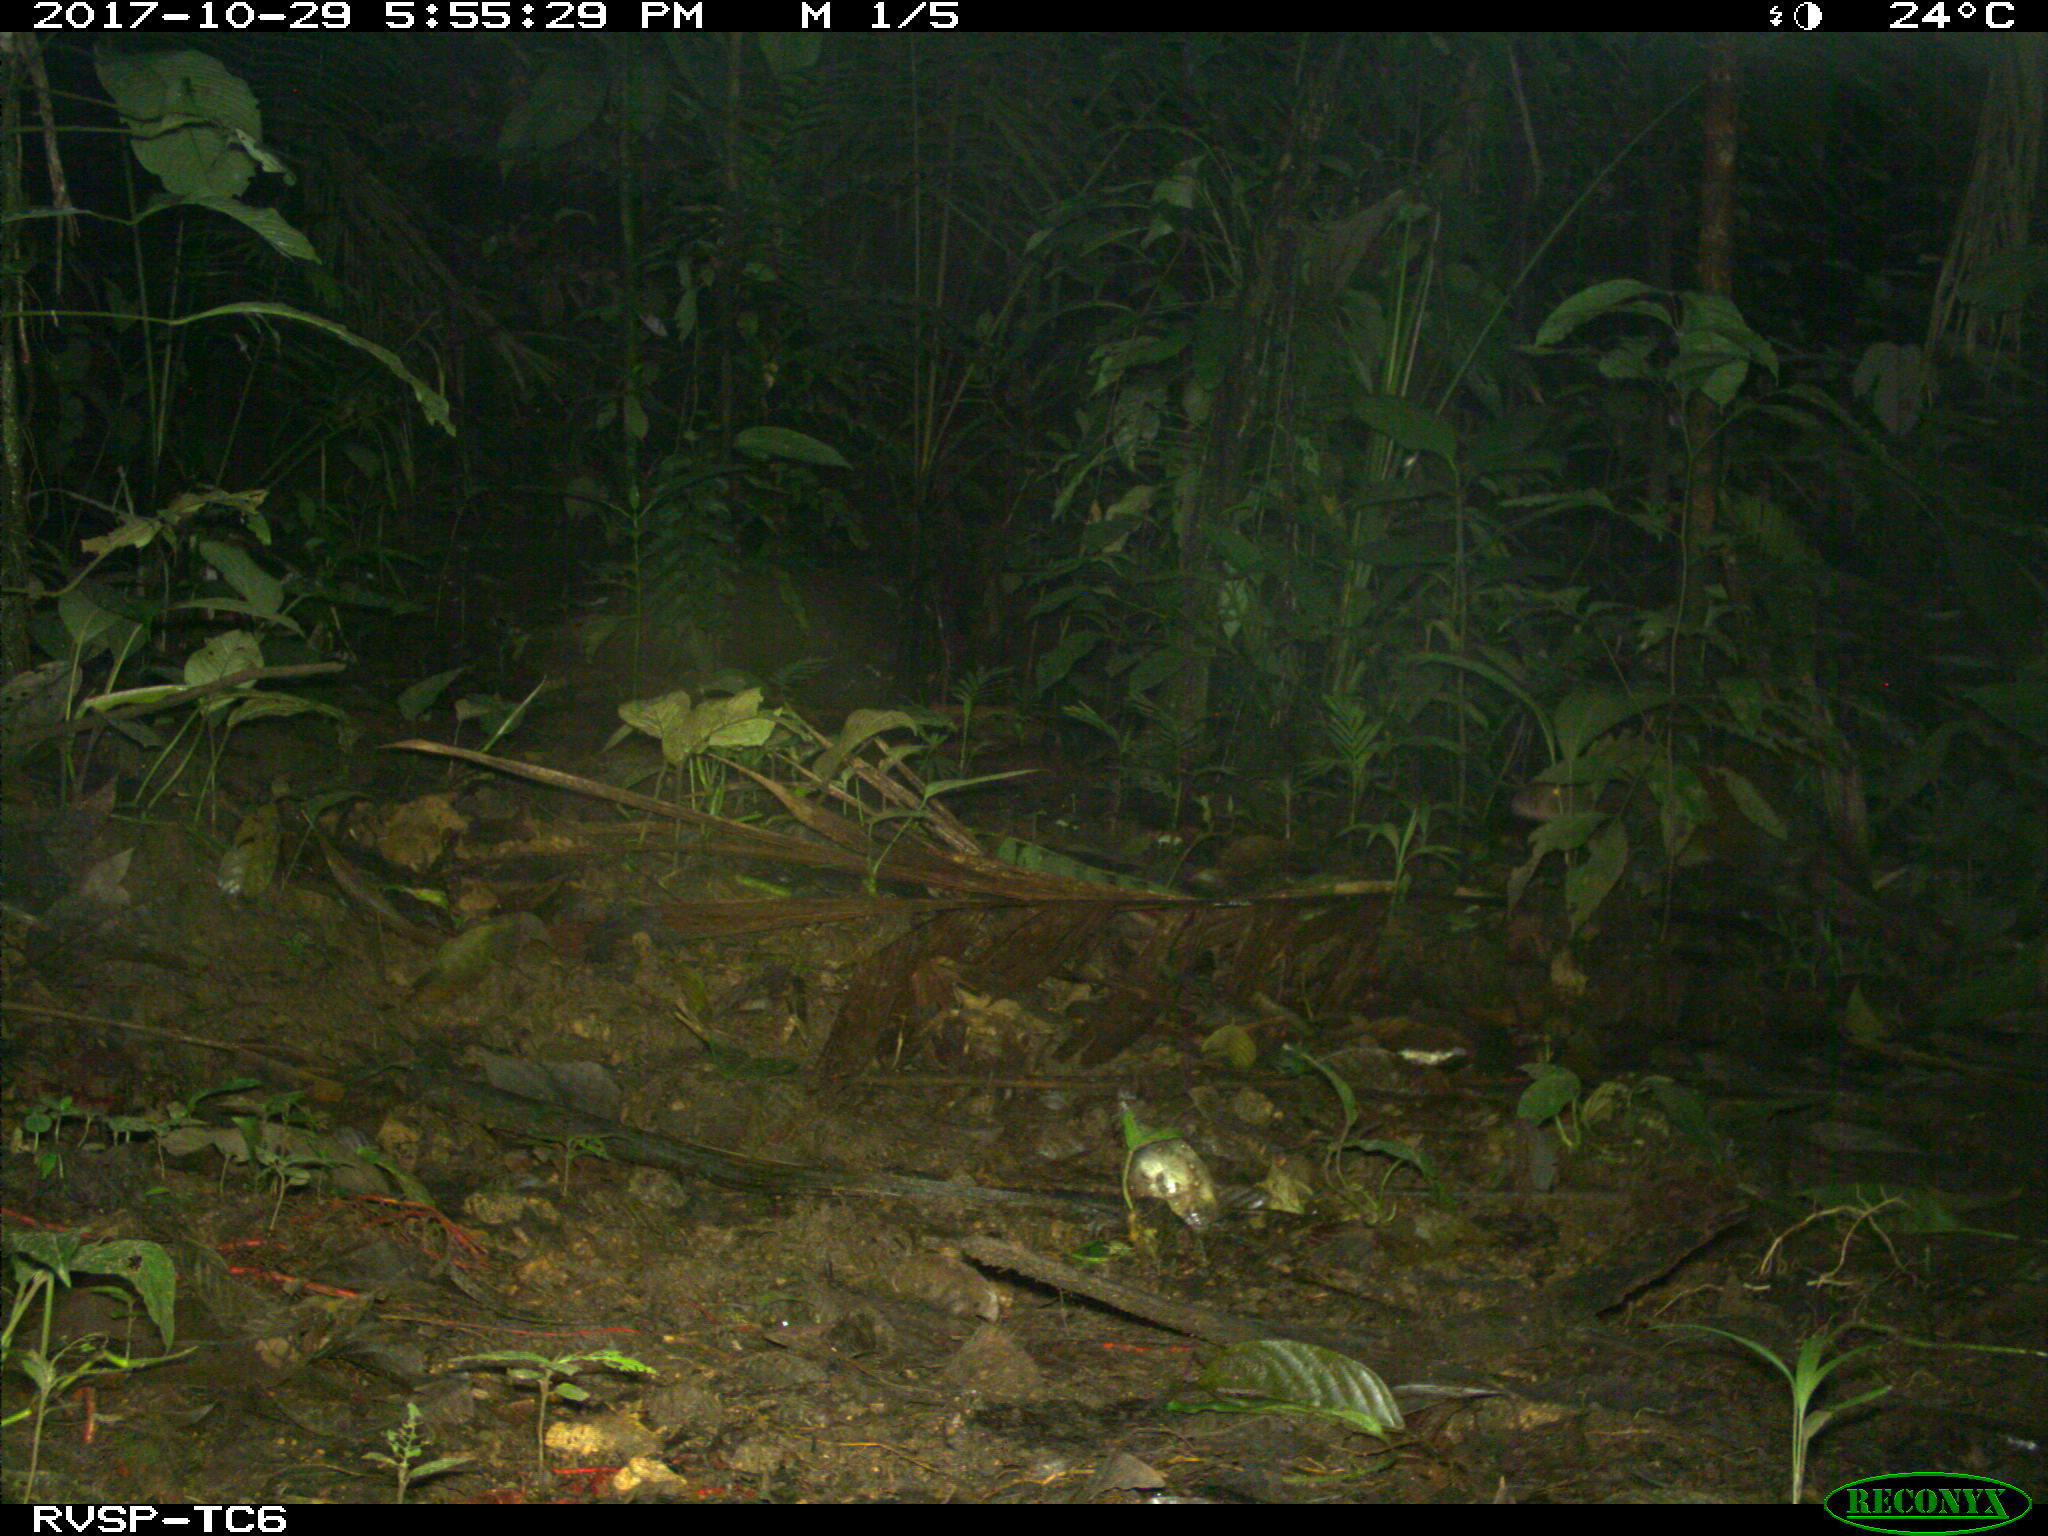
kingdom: Animalia
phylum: Chordata
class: Mammalia
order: Rodentia
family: Dasyproctidae
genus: Dasyprocta
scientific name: Dasyprocta punctata
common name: Central american agouti
